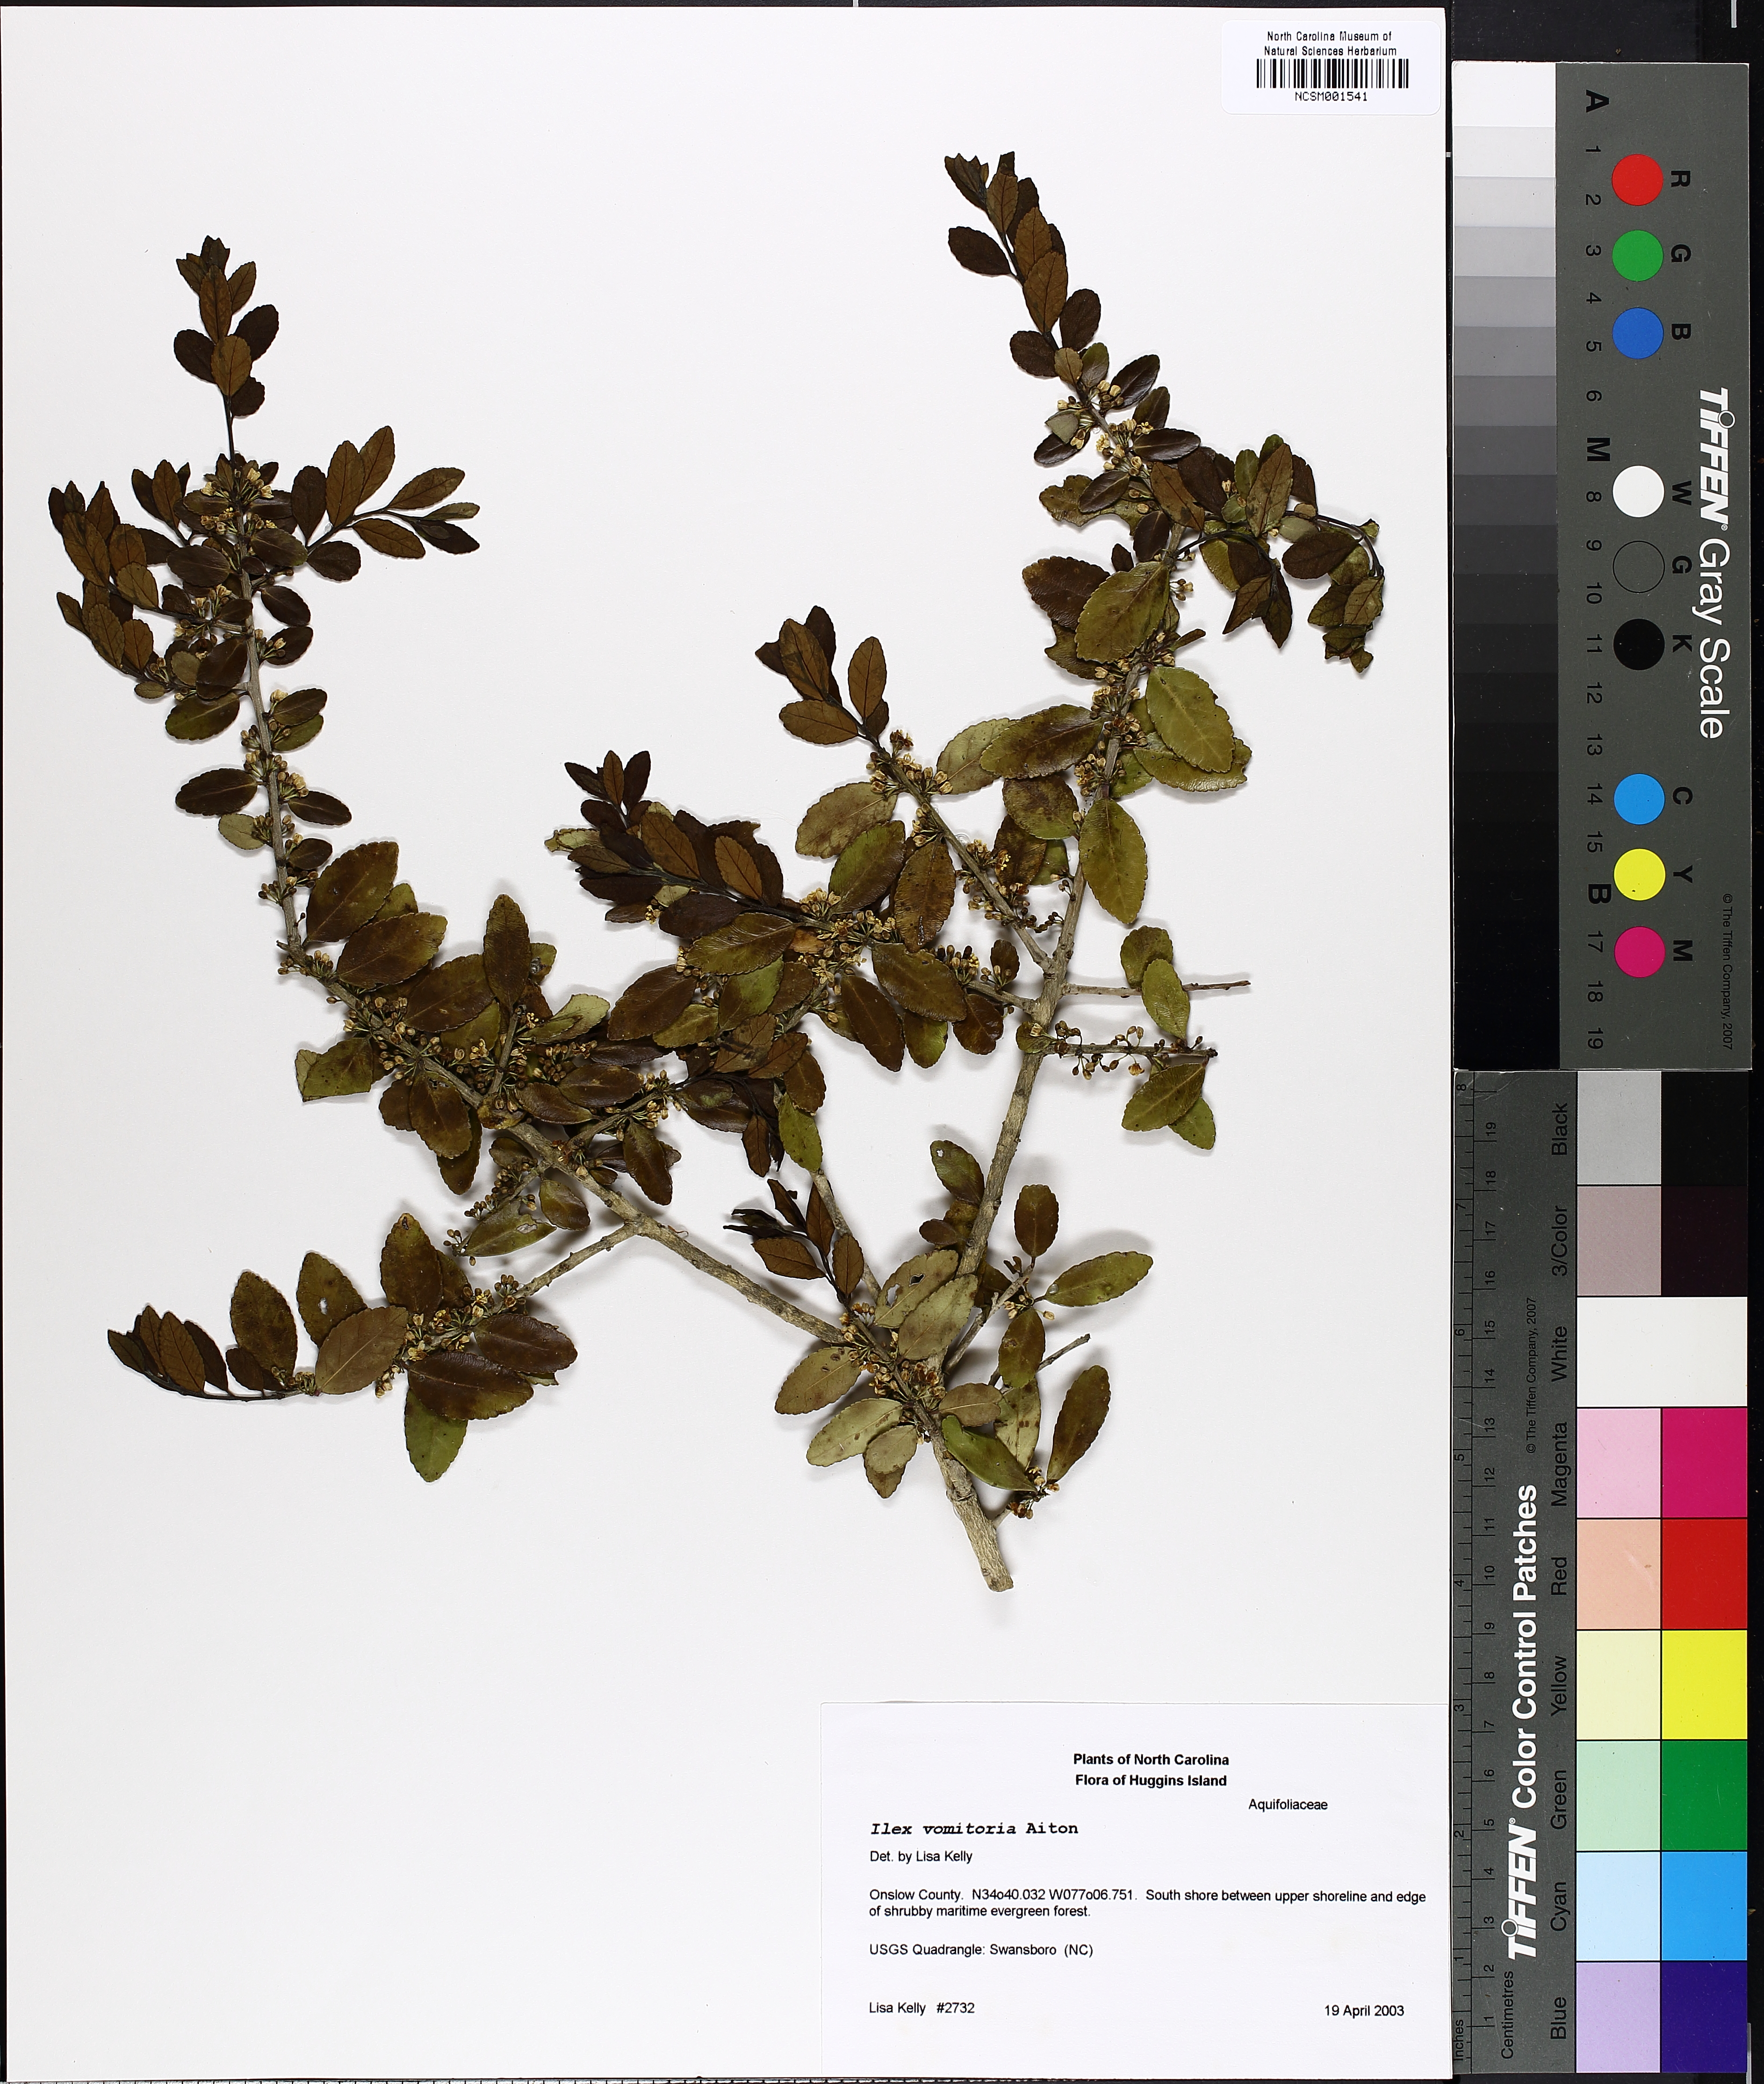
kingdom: Plantae
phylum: Tracheophyta
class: Magnoliopsida
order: Aquifoliales
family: Aquifoliaceae
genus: Ilex
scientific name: Ilex vomitoria
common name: Yaupon holly
